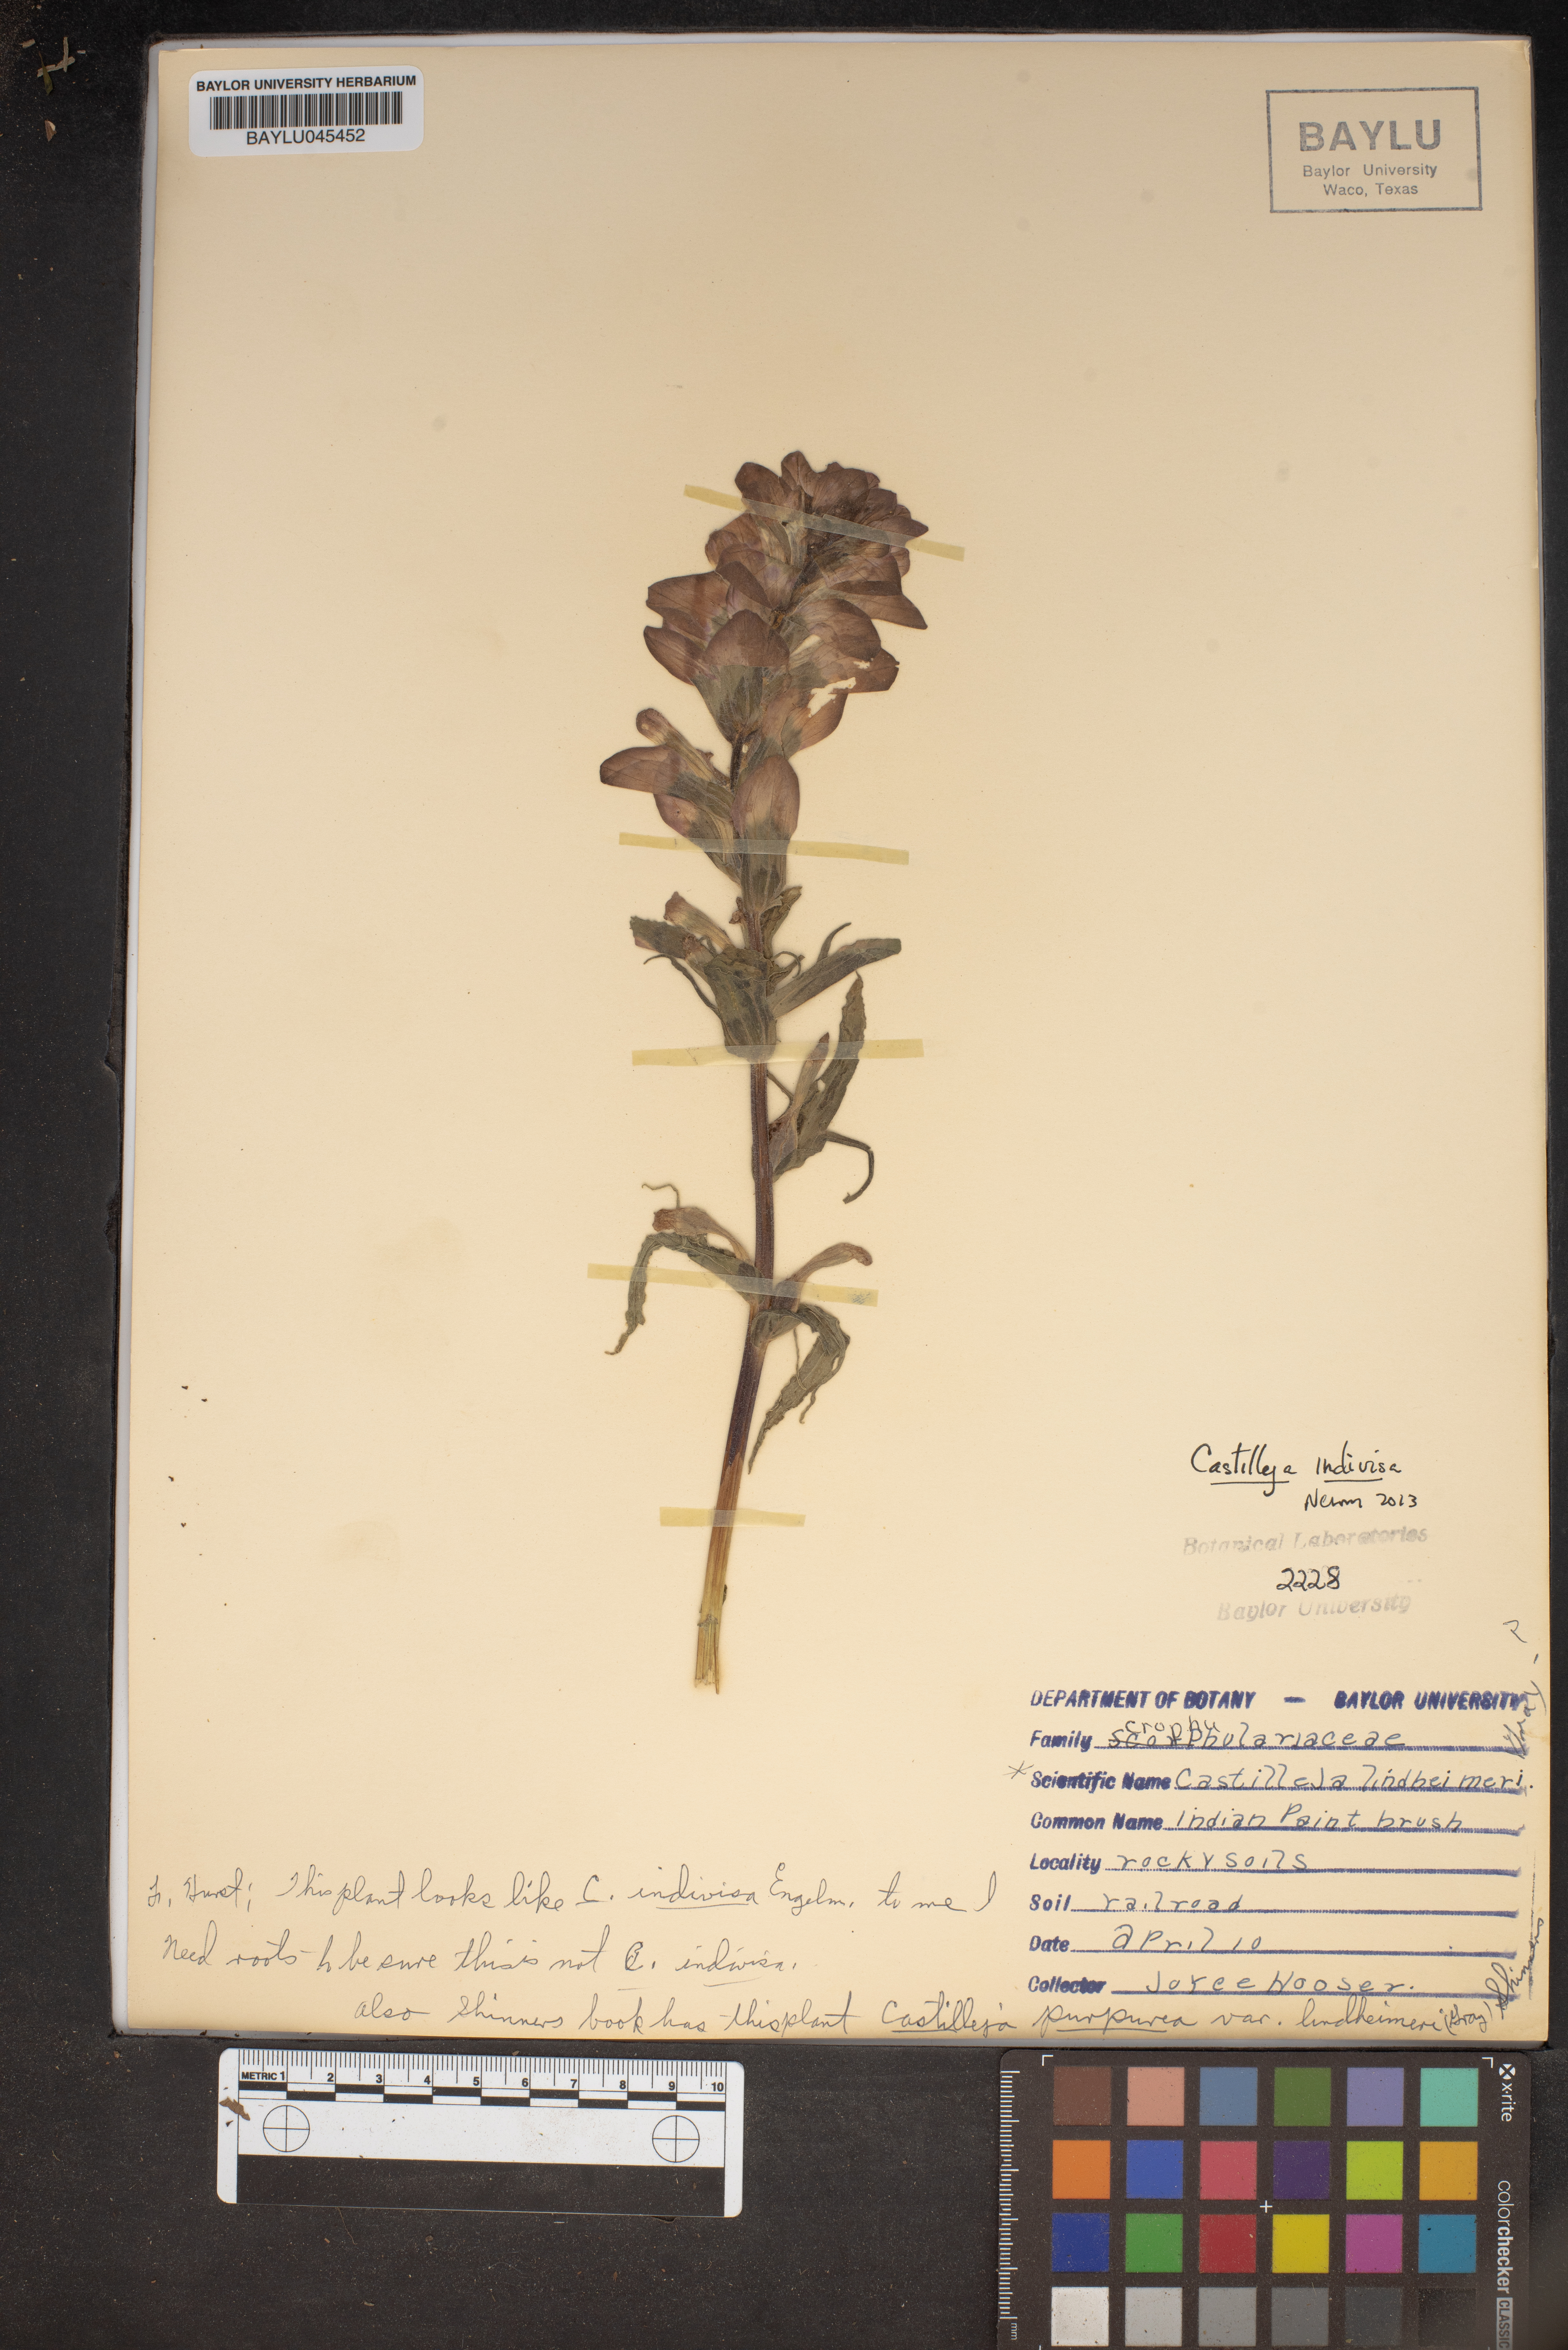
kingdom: Plantae
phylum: Tracheophyta
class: Magnoliopsida
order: Lamiales
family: Orobanchaceae
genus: Castilleja
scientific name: Castilleja lindheimeri
